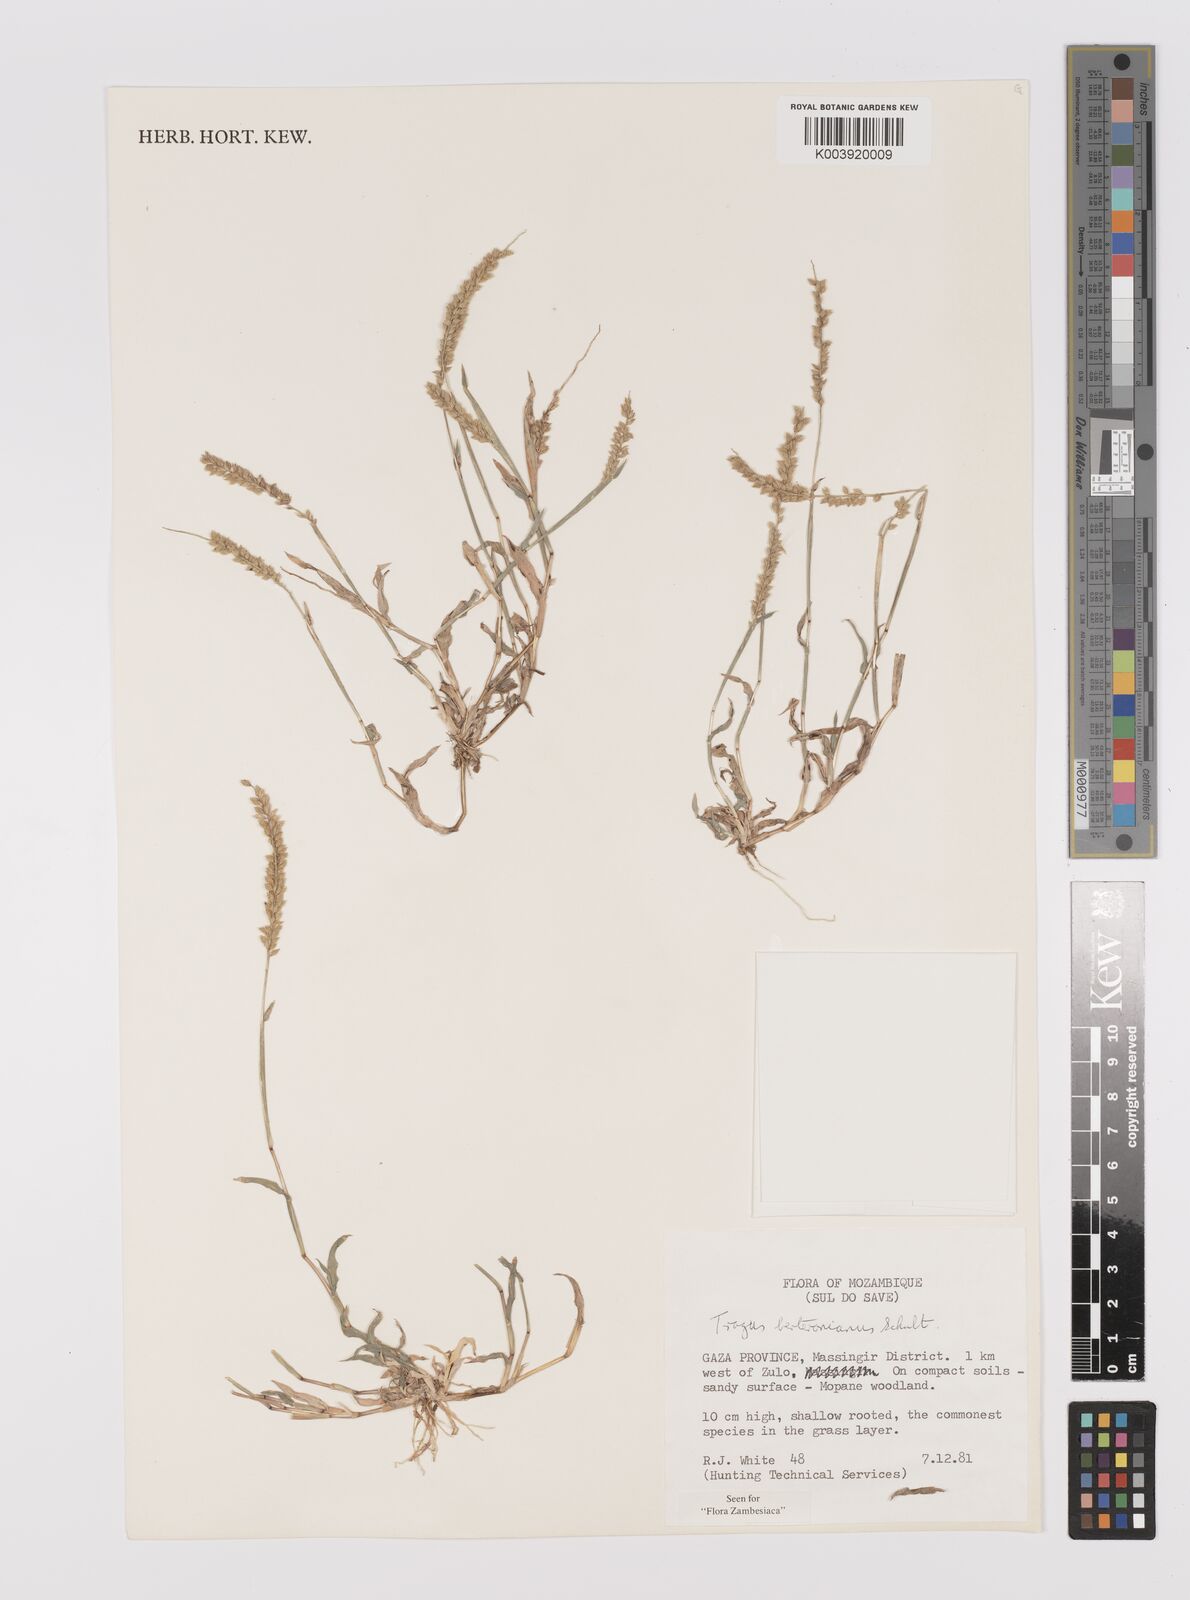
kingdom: Plantae
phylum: Tracheophyta
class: Liliopsida
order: Poales
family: Poaceae
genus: Tragus
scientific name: Tragus berteronianus
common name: African bur-grass
